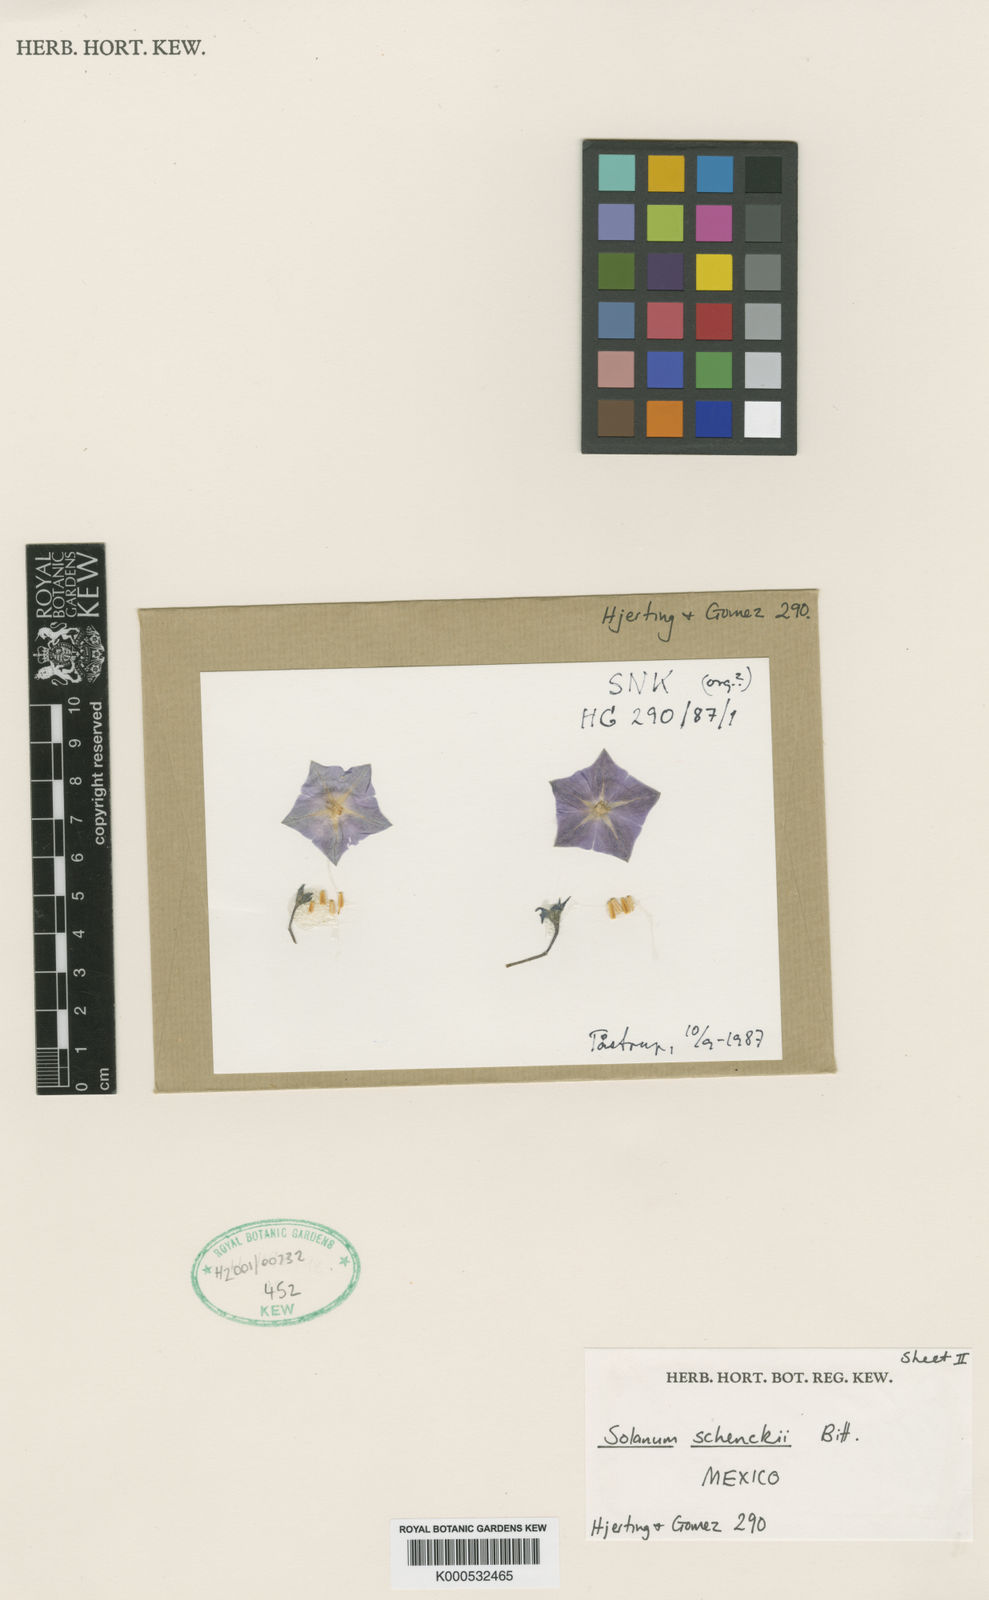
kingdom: Plantae
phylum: Tracheophyta
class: Magnoliopsida
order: Solanales
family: Solanaceae
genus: Solanum
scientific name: Solanum schenckii
